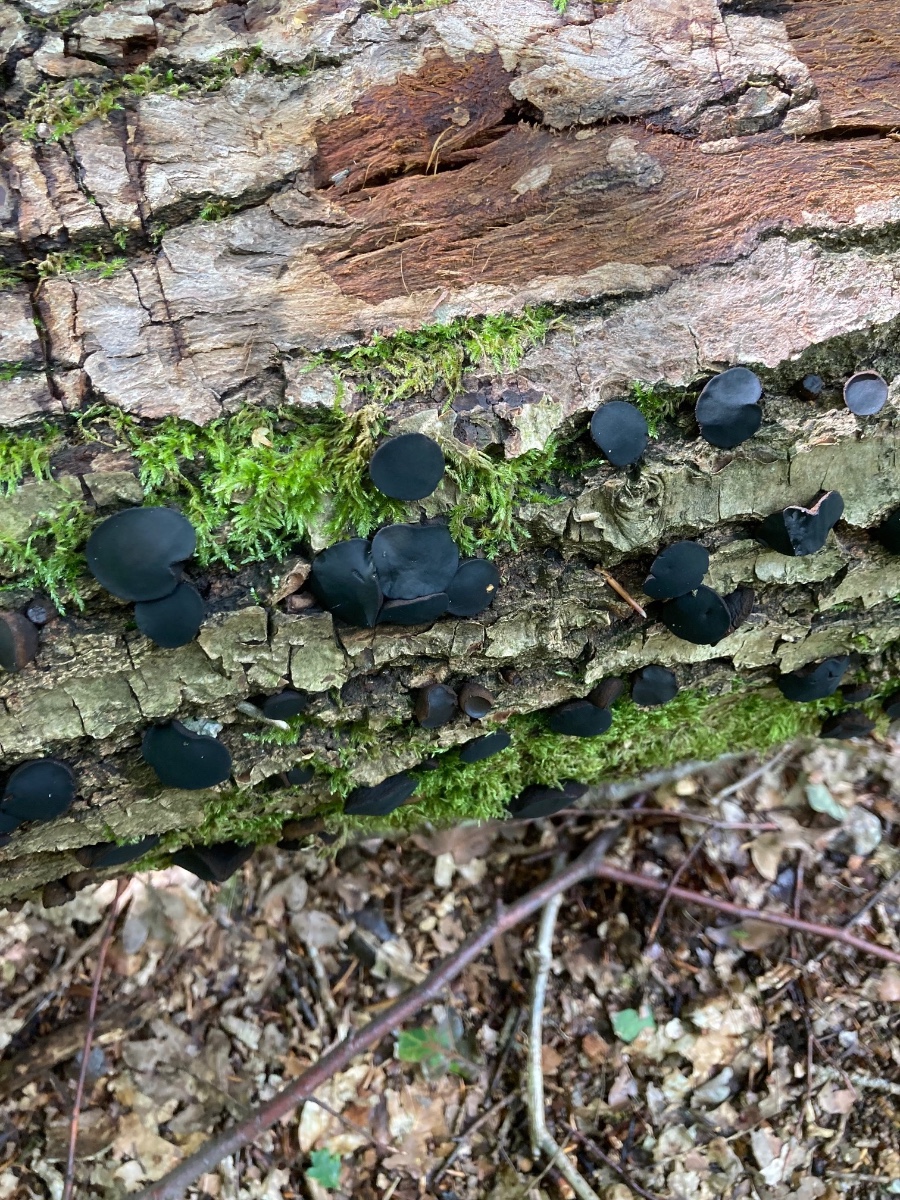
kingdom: Fungi
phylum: Ascomycota
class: Leotiomycetes
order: Phacidiales
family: Phacidiaceae
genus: Bulgaria
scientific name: Bulgaria inquinans
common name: afsmittende topsvamp
